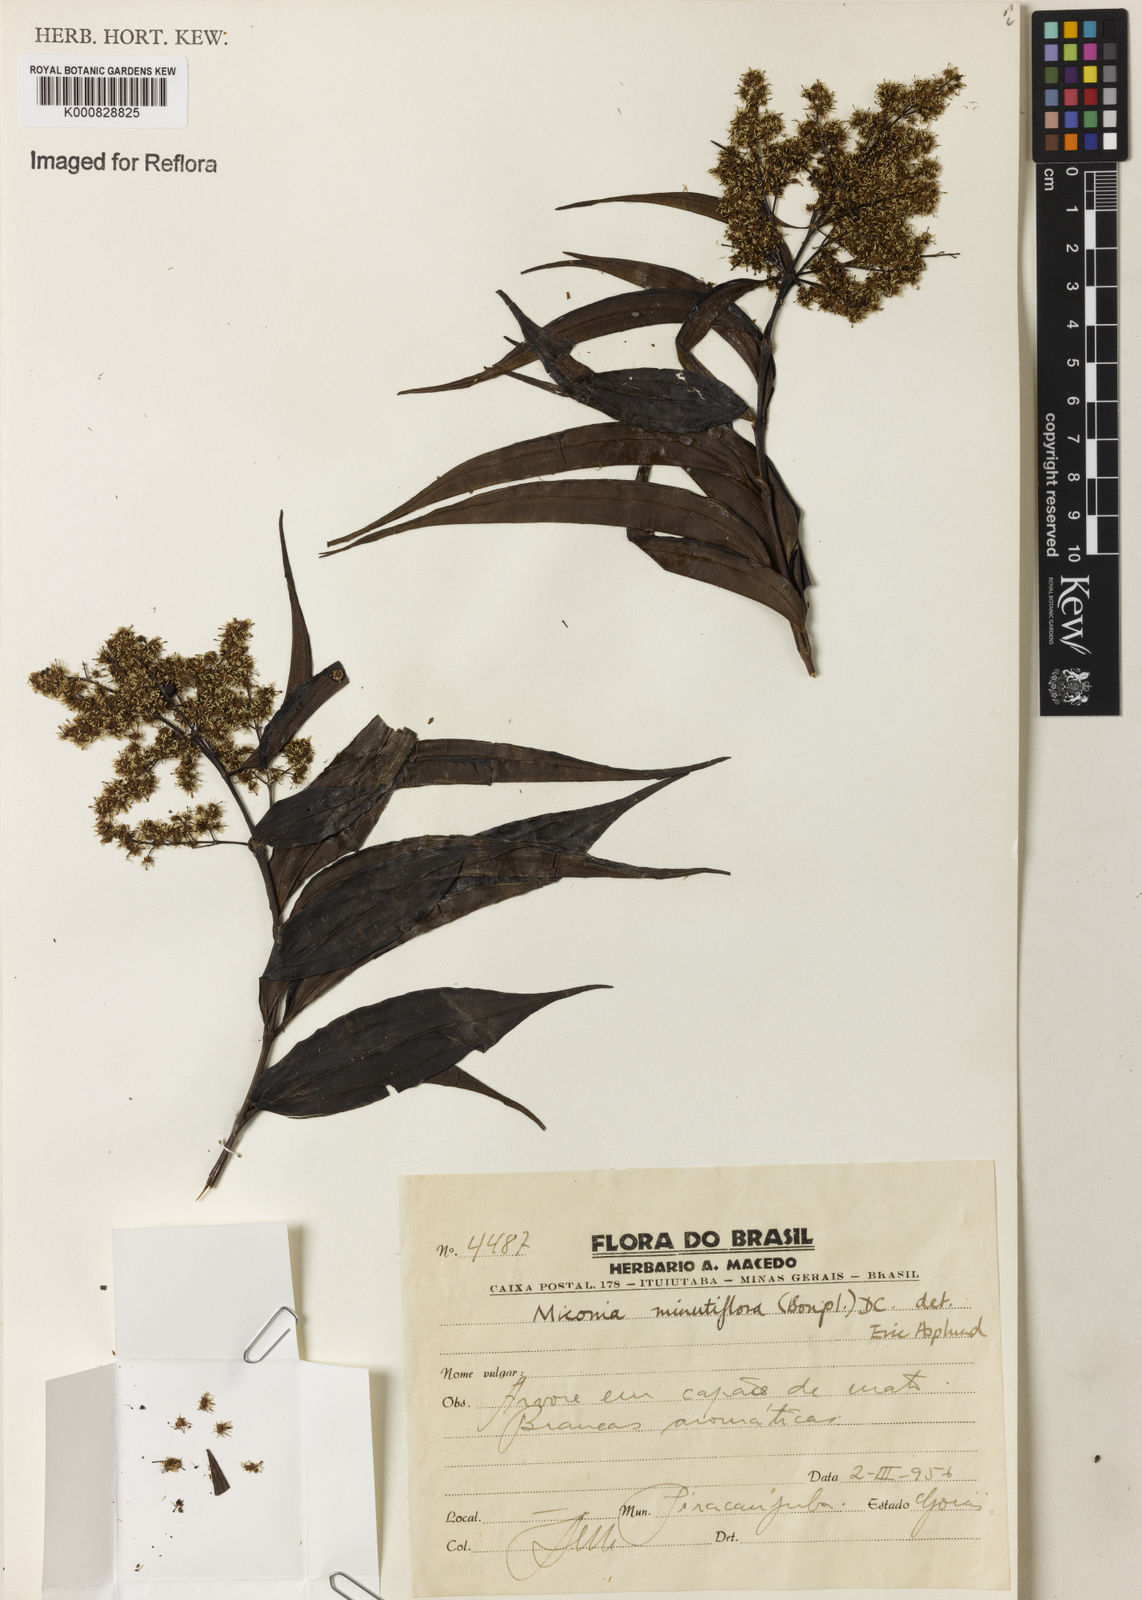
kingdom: Plantae
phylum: Tracheophyta
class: Magnoliopsida
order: Myrtales
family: Melastomataceae
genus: Miconia
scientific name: Miconia minutiflora
